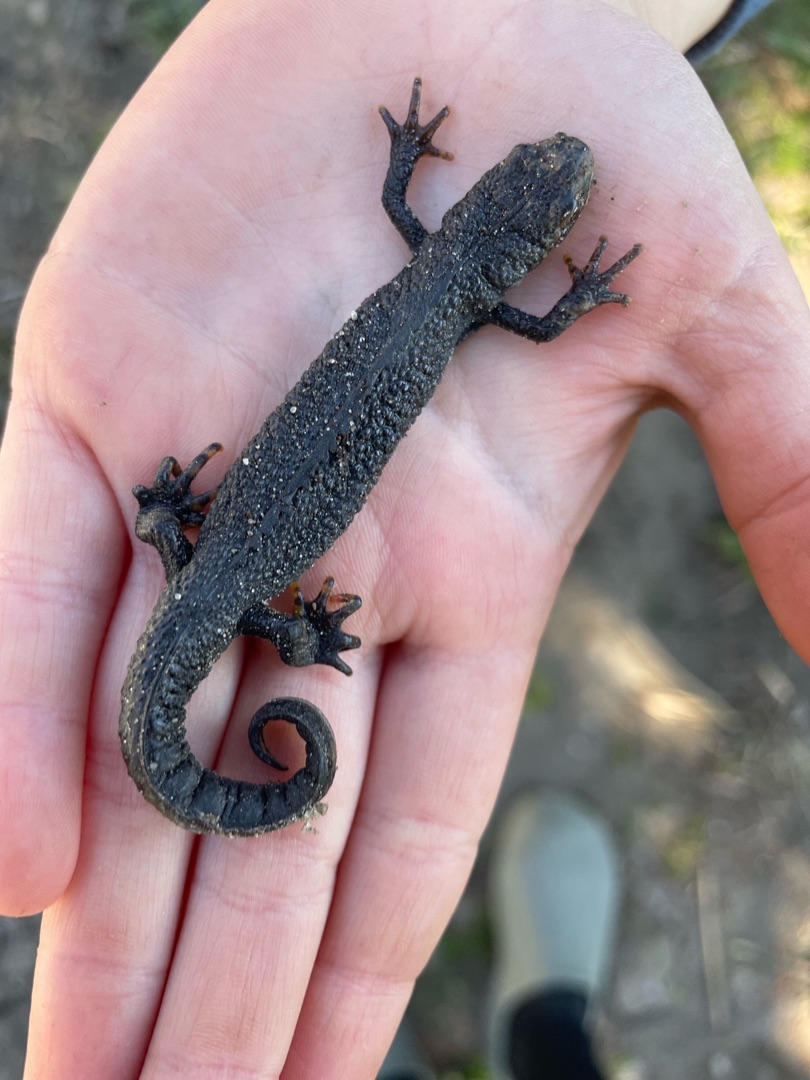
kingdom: Animalia
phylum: Chordata
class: Amphibia
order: Caudata
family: Salamandridae
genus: Triturus
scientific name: Triturus cristatus
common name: Stor vandsalamander
